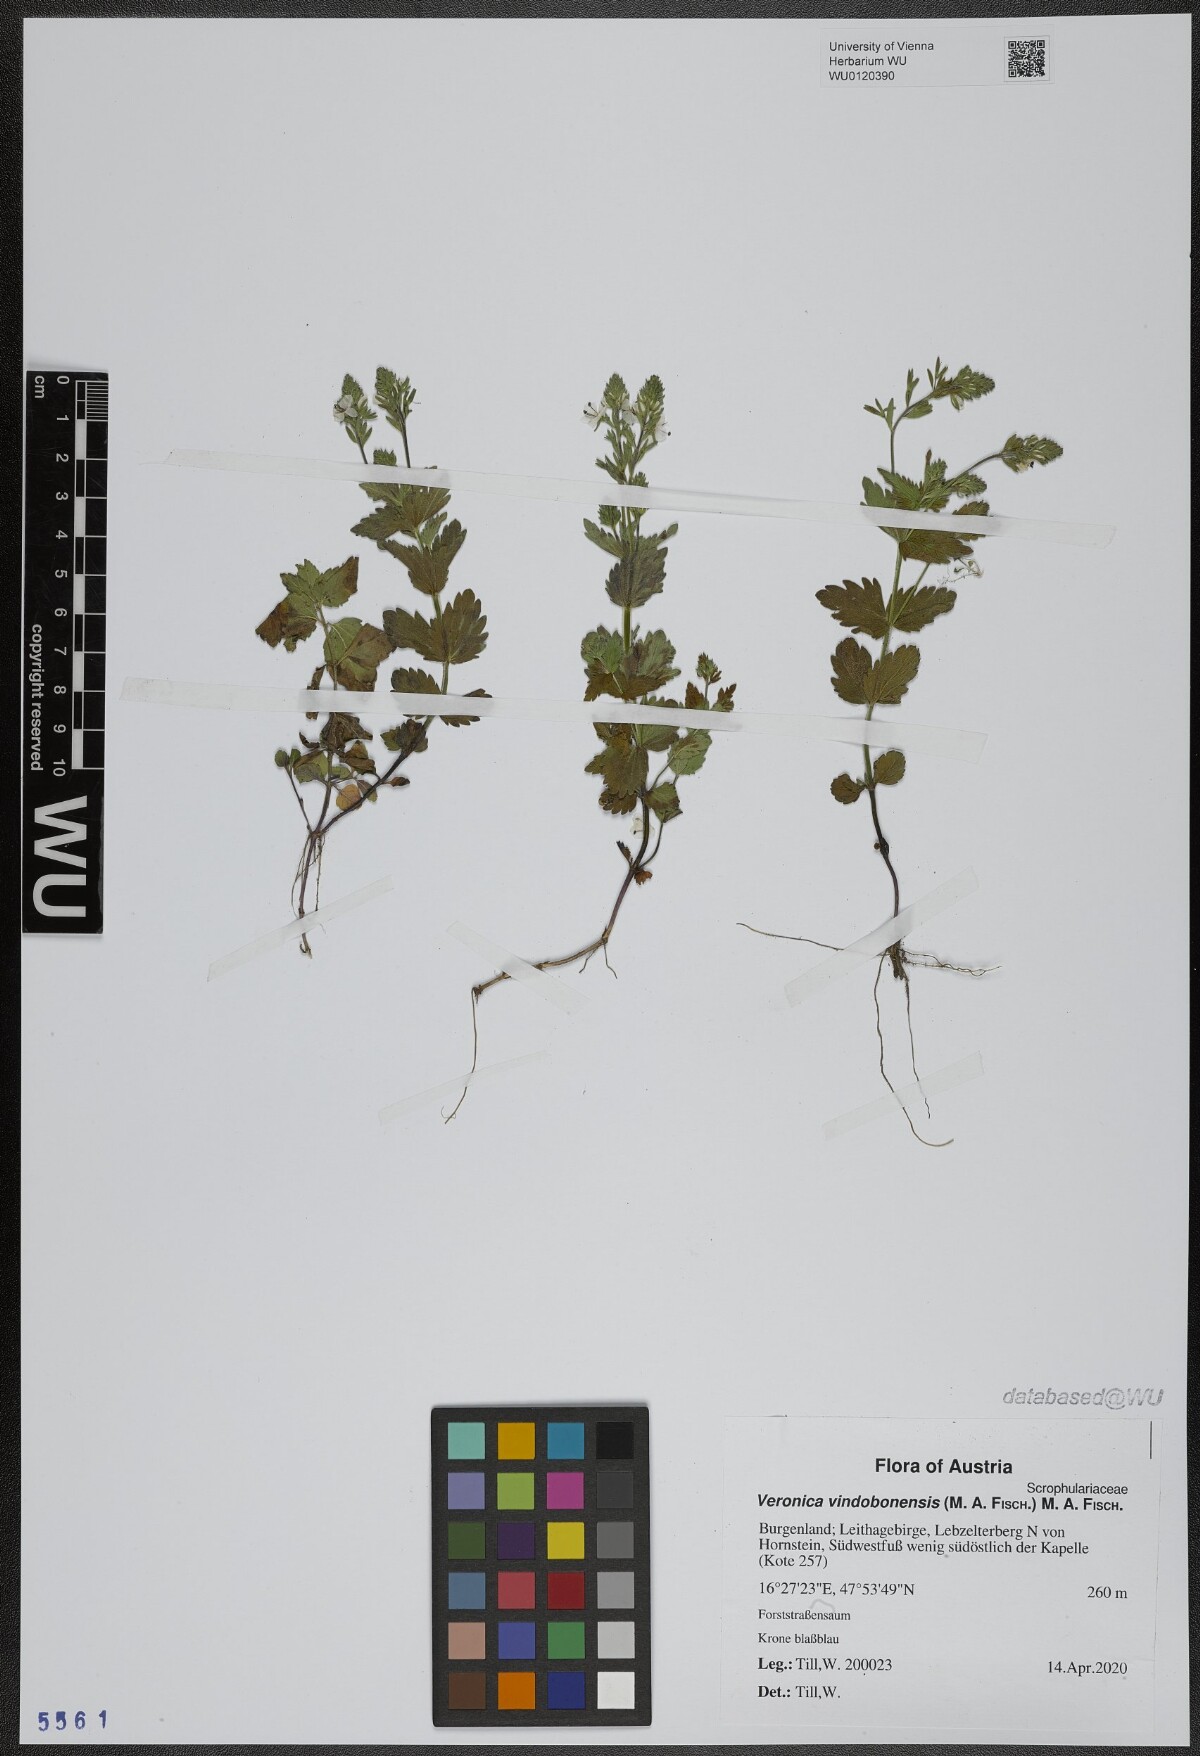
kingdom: Plantae
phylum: Tracheophyta
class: Magnoliopsida
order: Lamiales
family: Plantaginaceae
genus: Veronica
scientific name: Veronica vindobonensis
